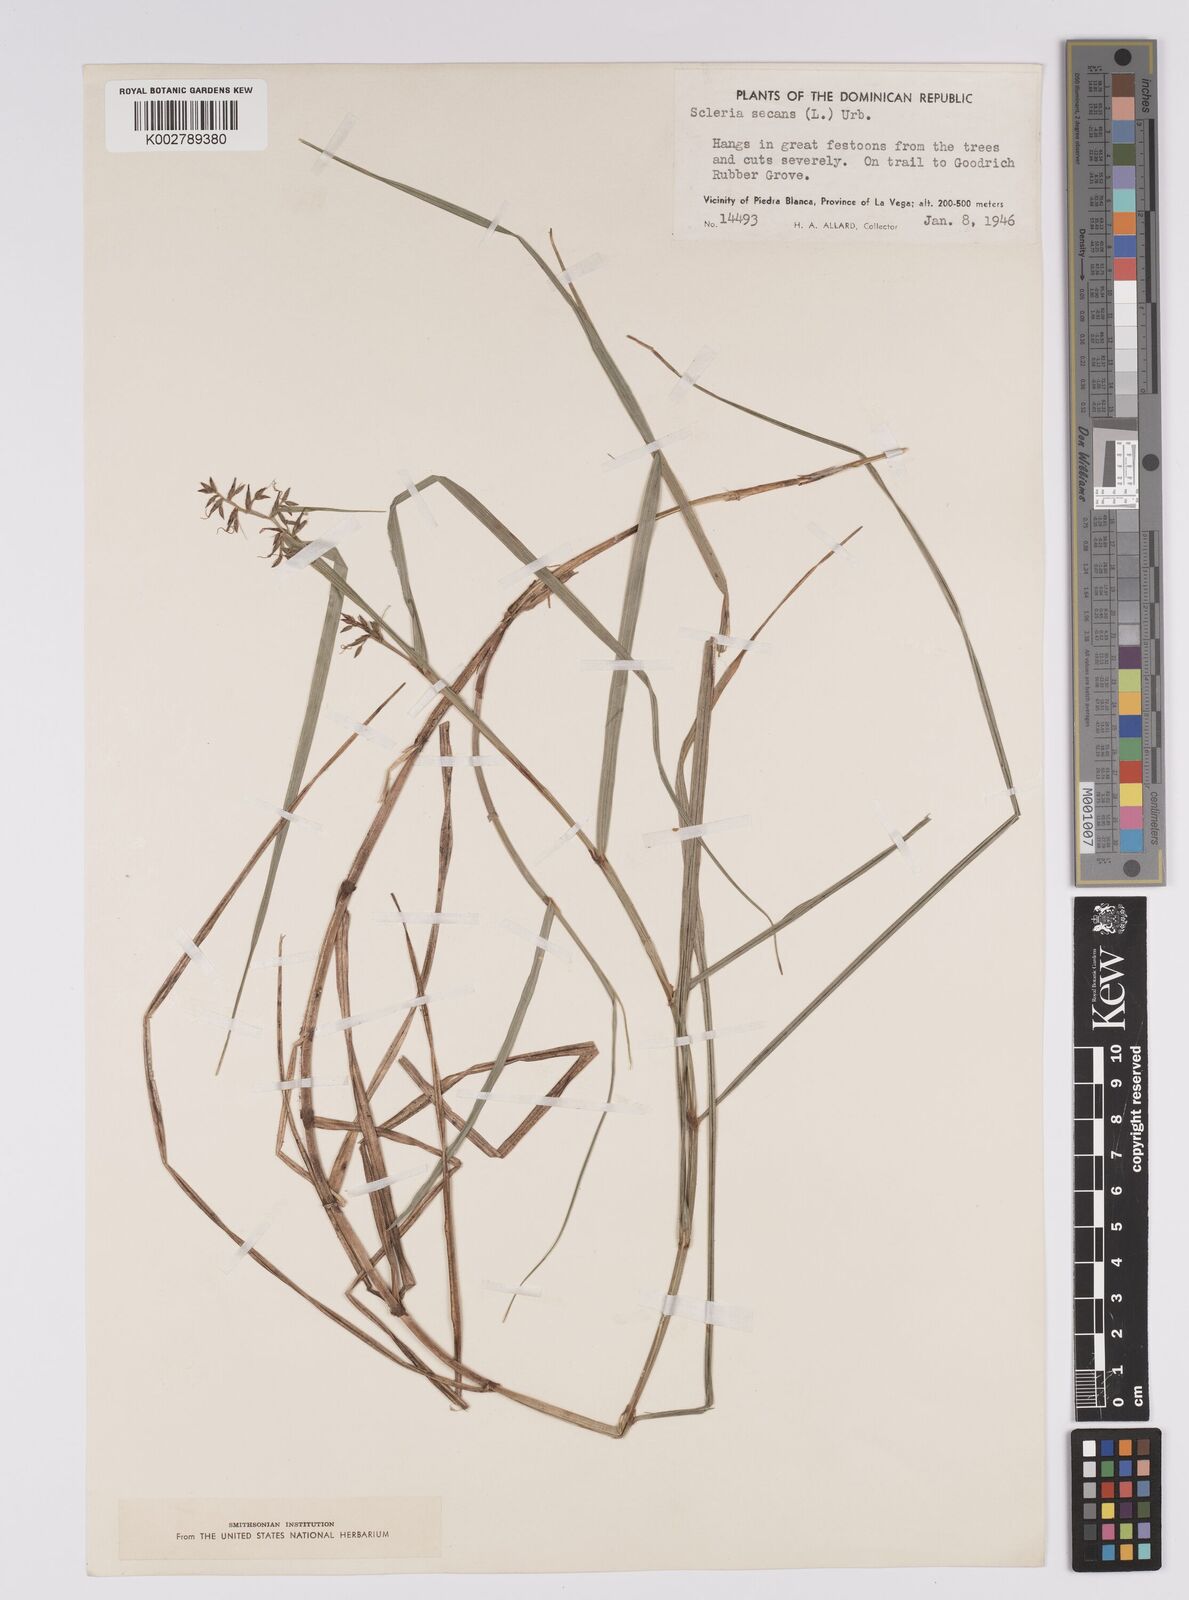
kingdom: Plantae
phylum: Tracheophyta
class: Liliopsida
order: Poales
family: Cyperaceae
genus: Scleria
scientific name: Scleria secans
